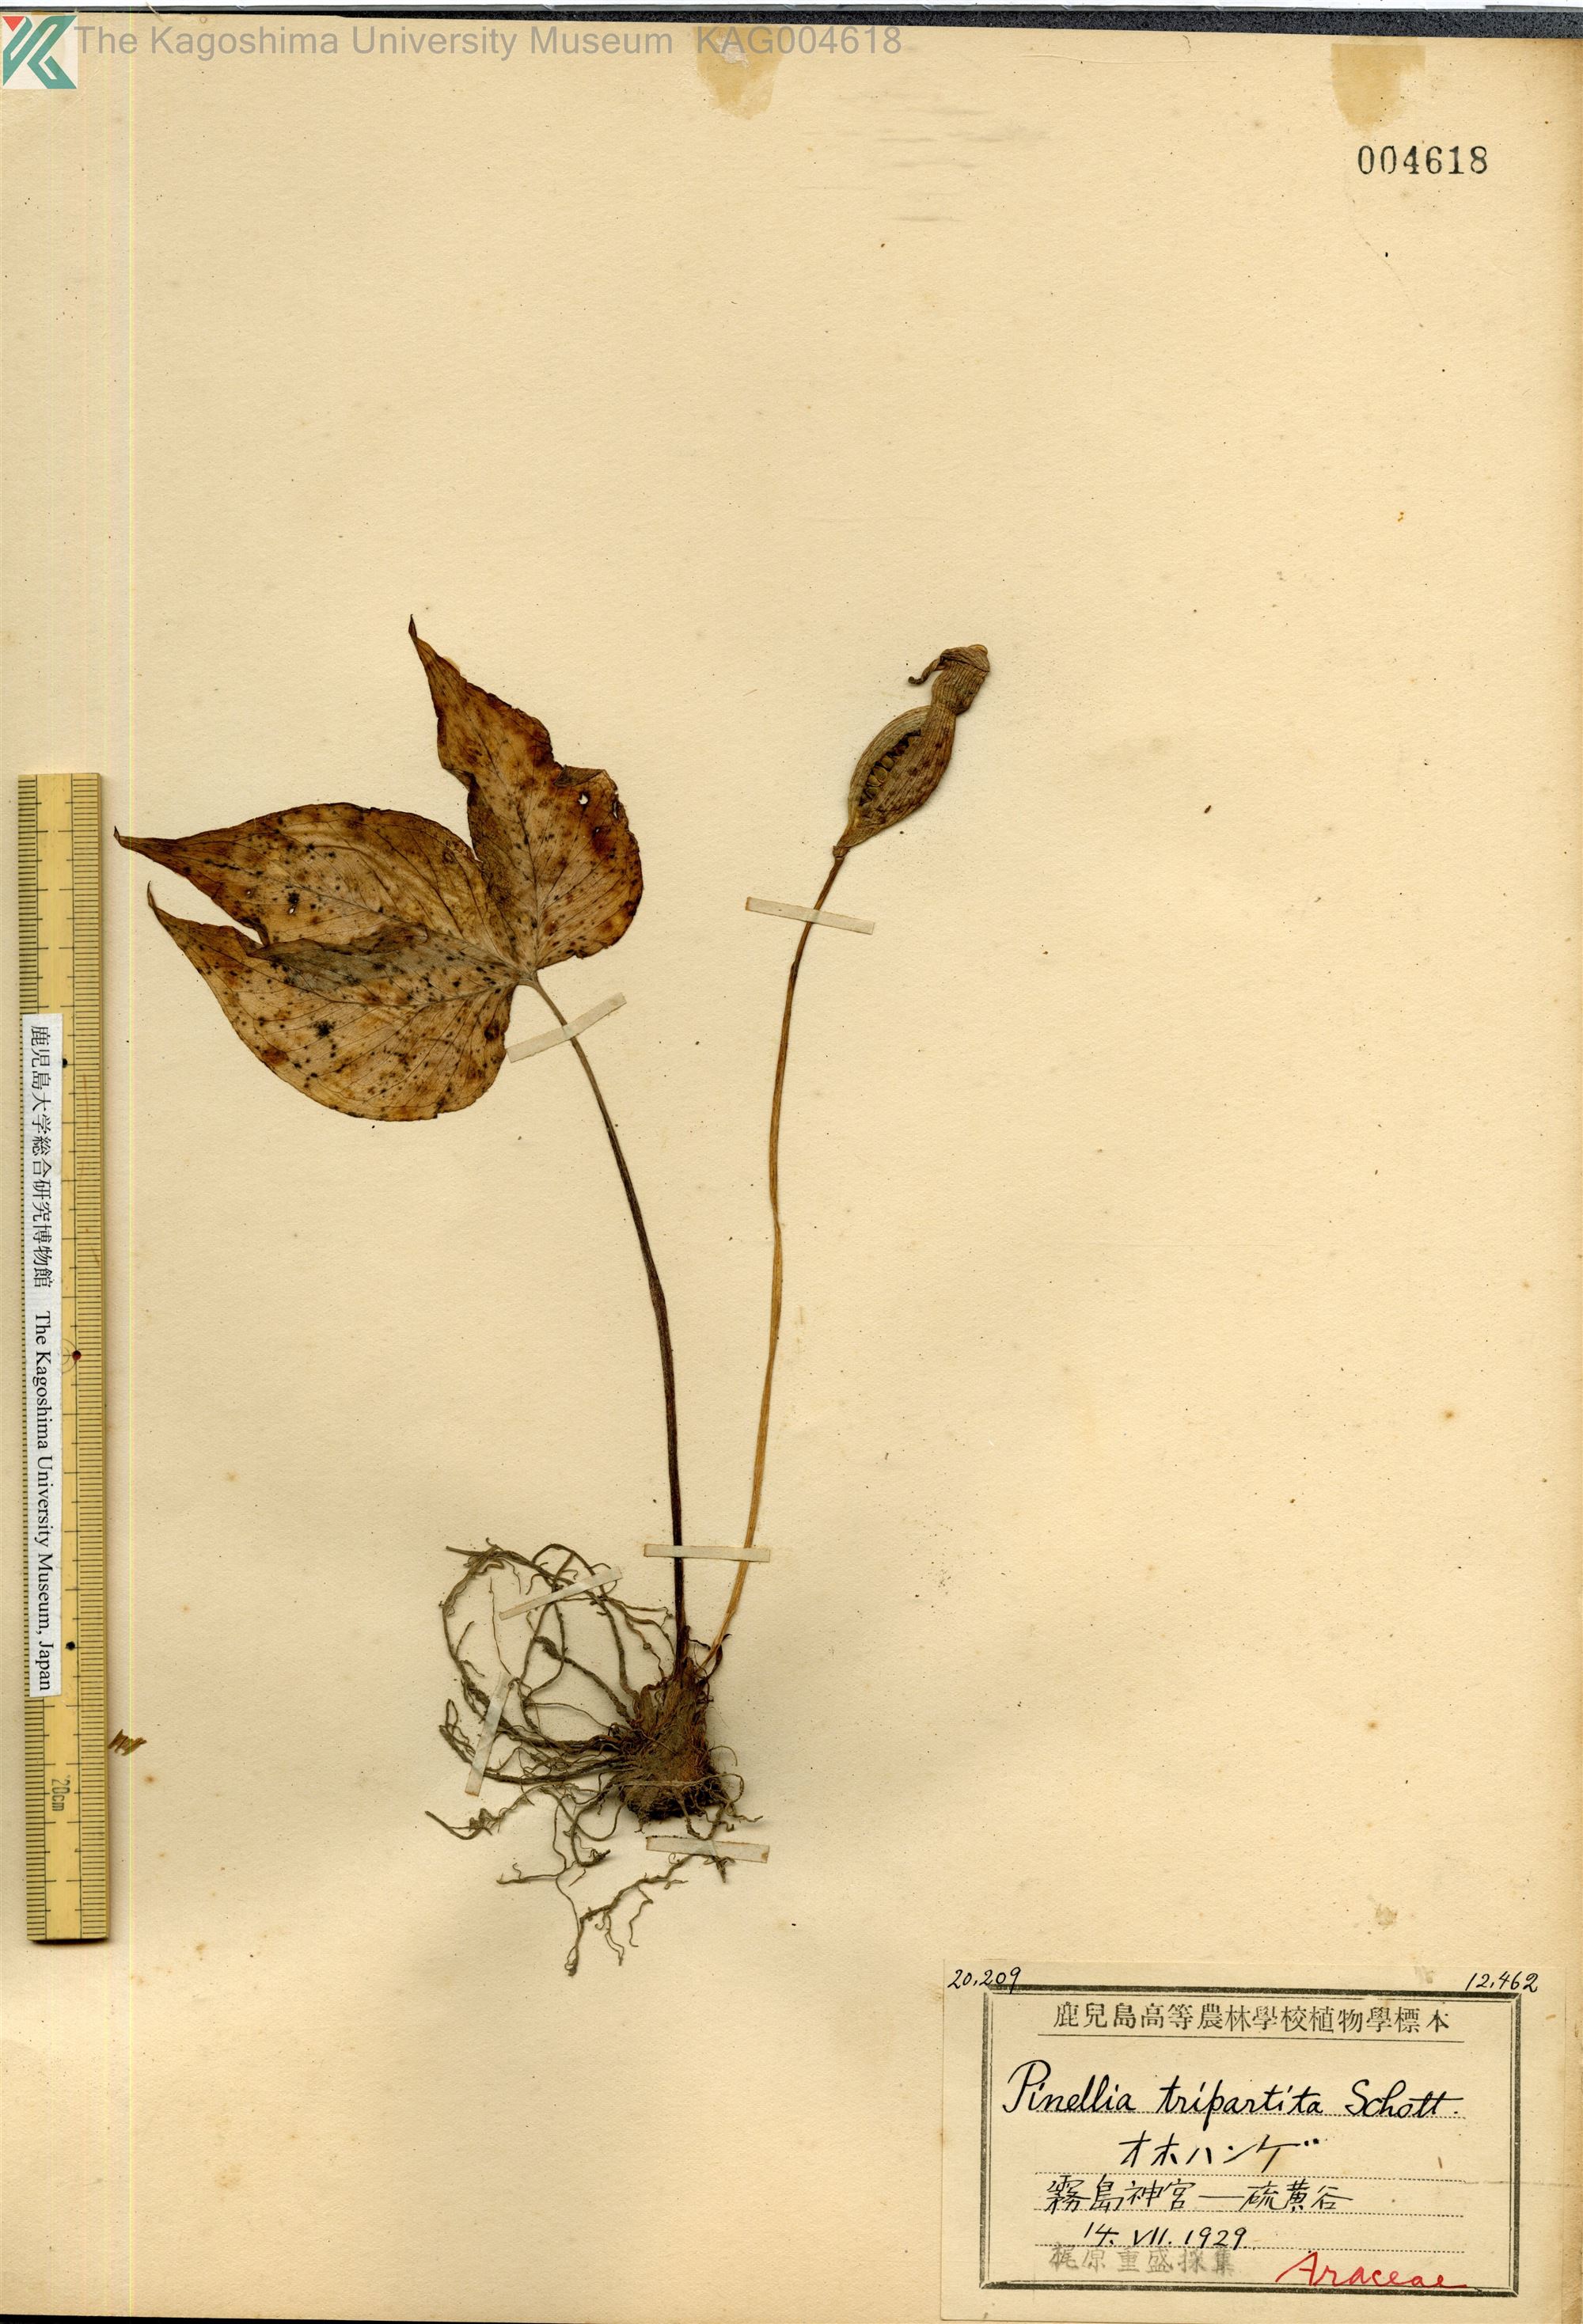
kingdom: Plantae
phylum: Tracheophyta
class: Liliopsida
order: Alismatales
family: Araceae
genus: Pinellia
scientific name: Pinellia tripartita
